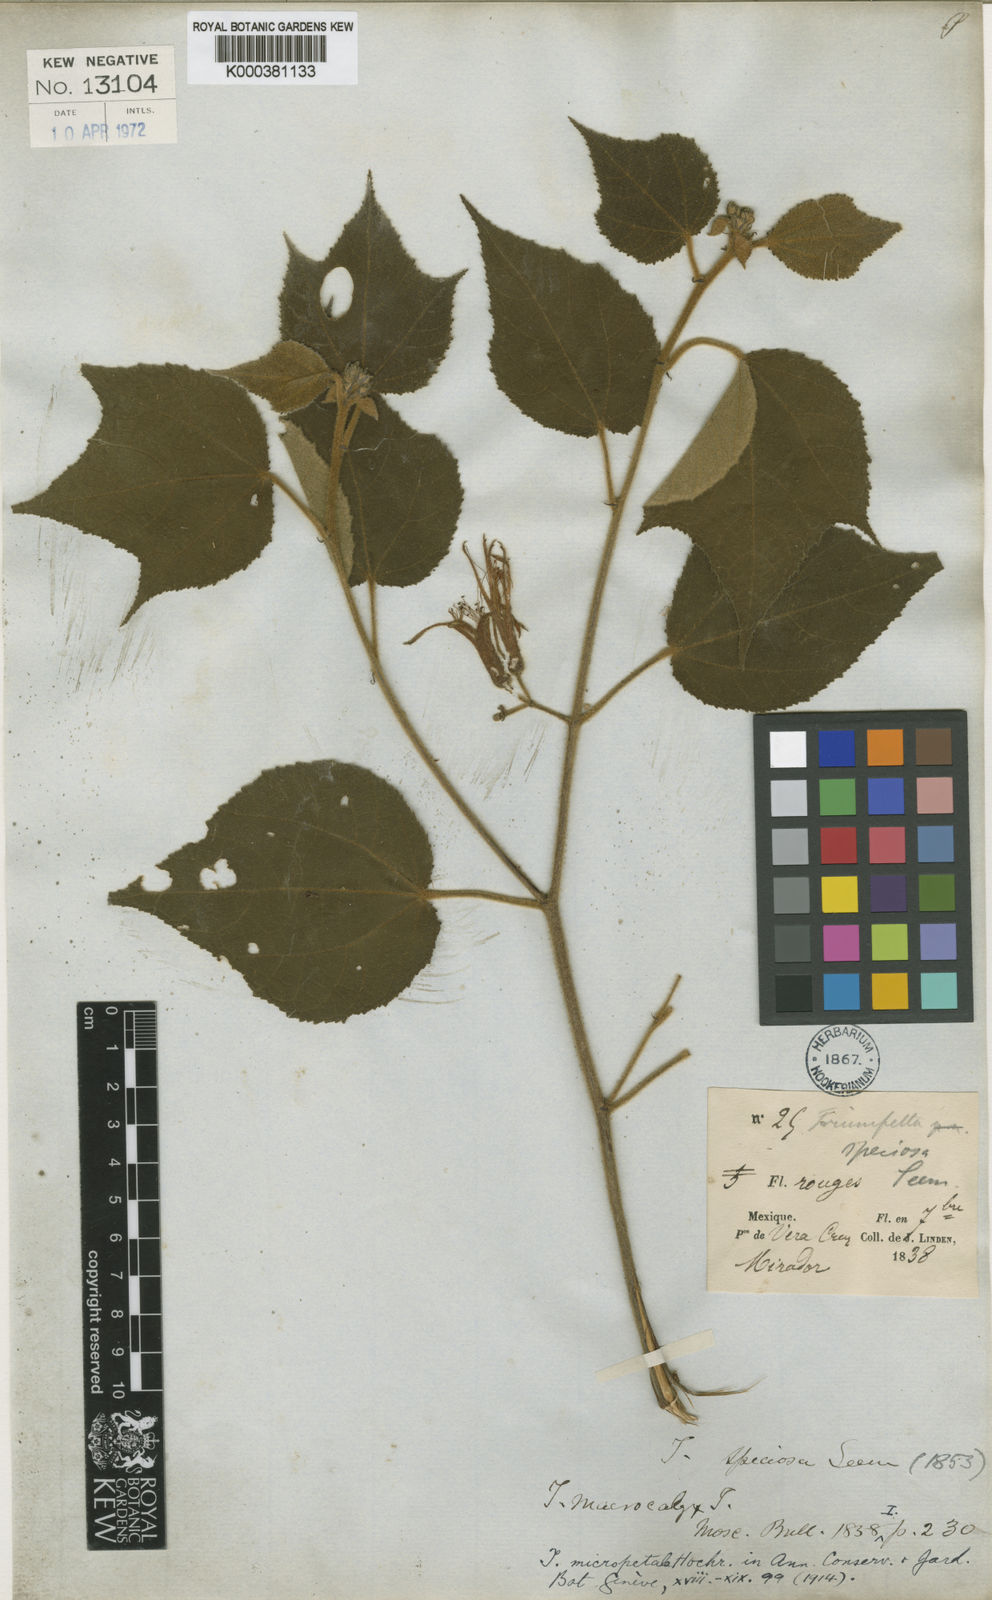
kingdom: Plantae
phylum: Tracheophyta
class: Magnoliopsida
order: Malvales
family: Malvaceae
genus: Triumfetta
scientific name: Triumfetta speciosa
